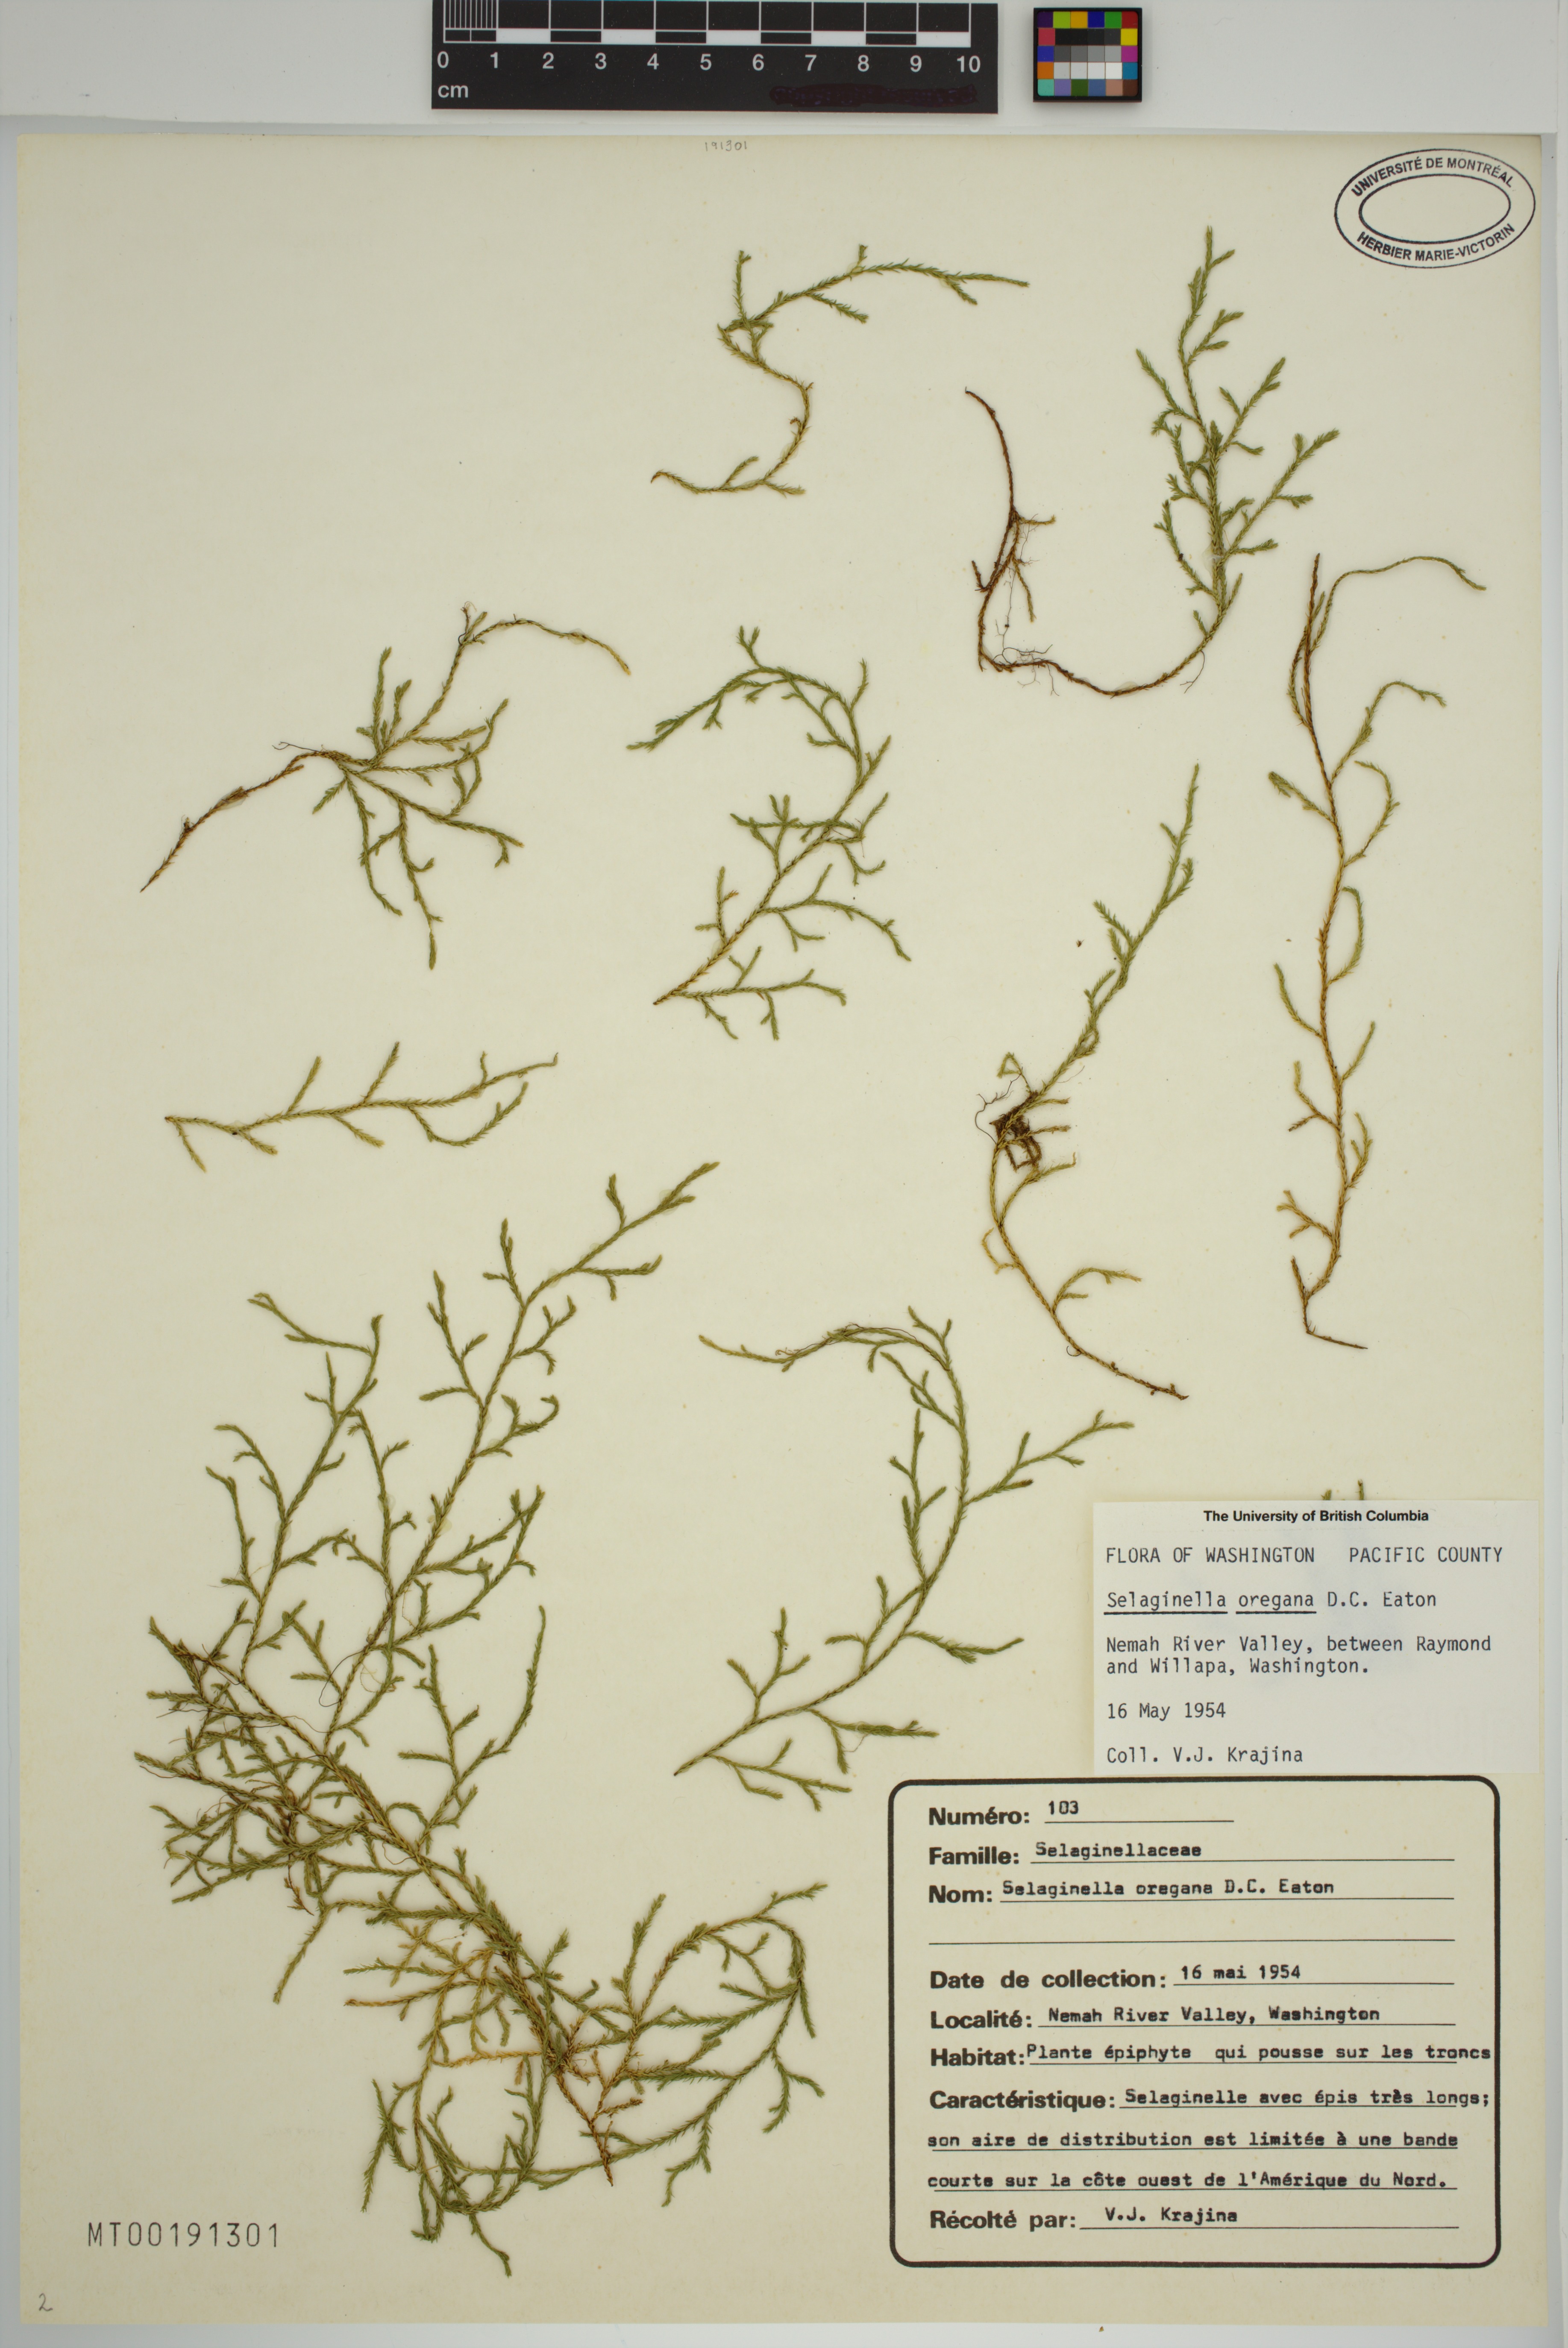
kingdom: Plantae
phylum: Tracheophyta
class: Lycopodiopsida
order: Selaginellales
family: Selaginellaceae
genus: Selaginella
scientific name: Selaginella oregana
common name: Oregon selaginella
